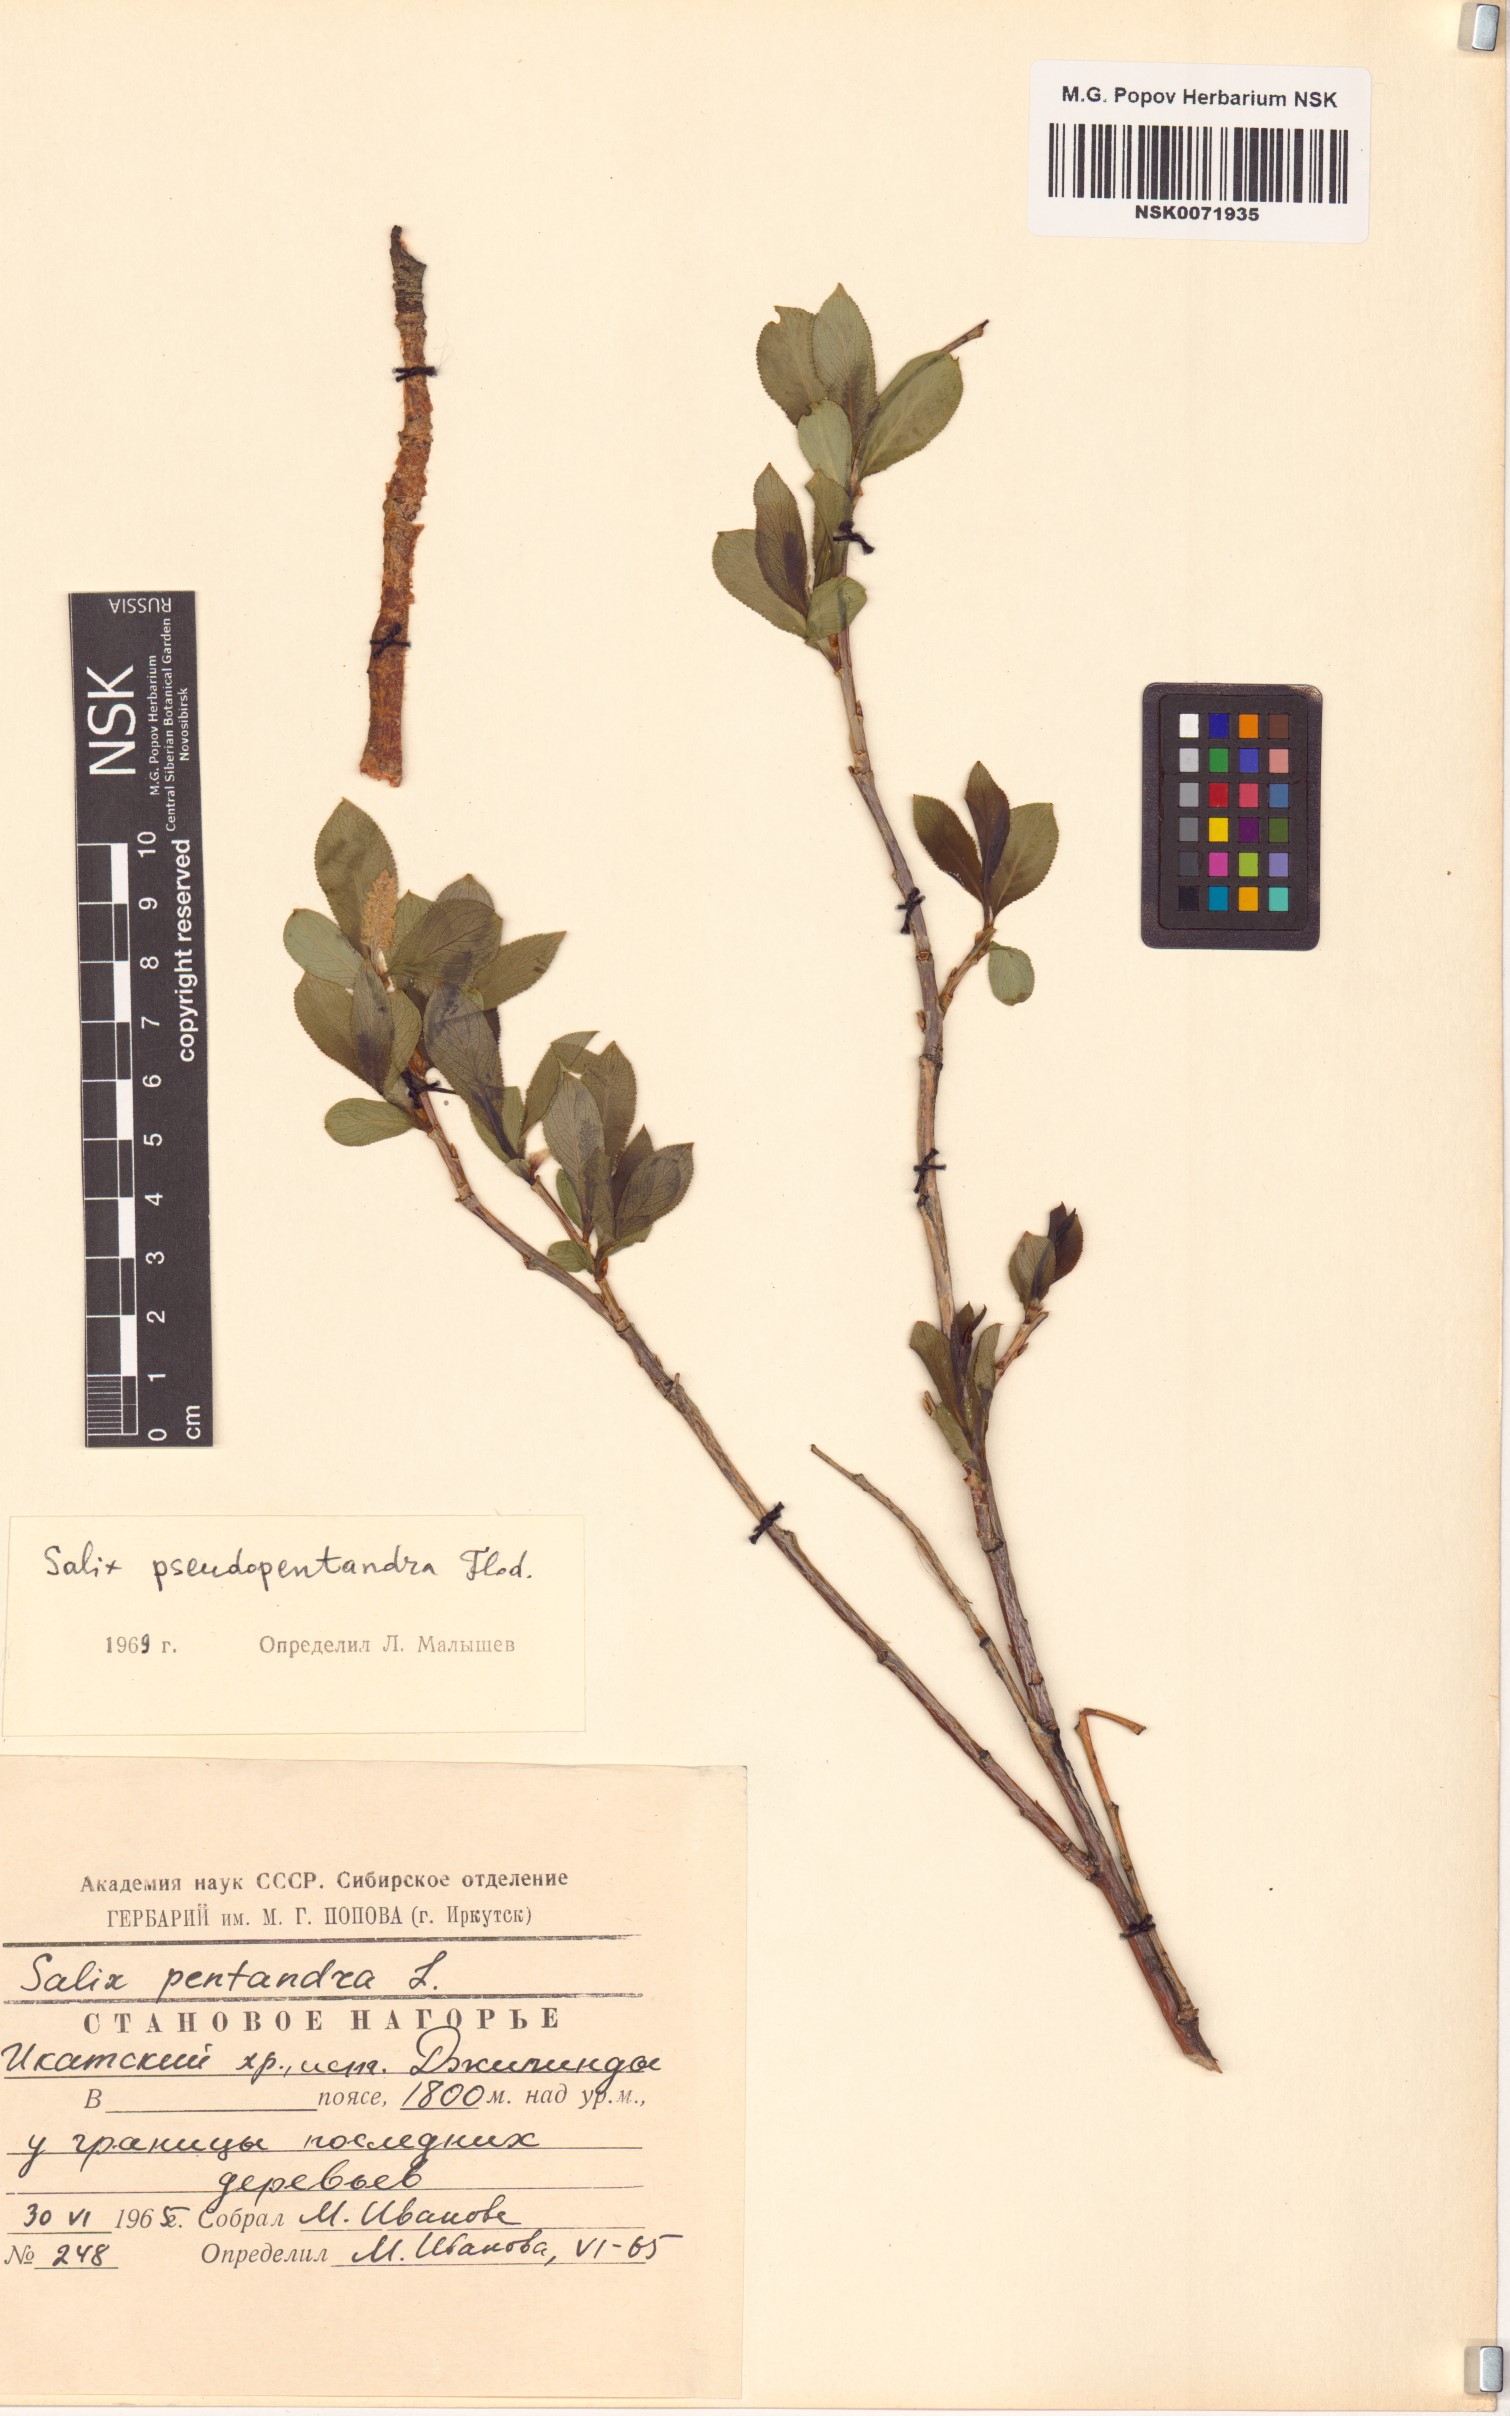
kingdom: Plantae
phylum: Tracheophyta
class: Magnoliopsida
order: Malpighiales
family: Salicaceae
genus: Salix
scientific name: Salix pseudopentandra
